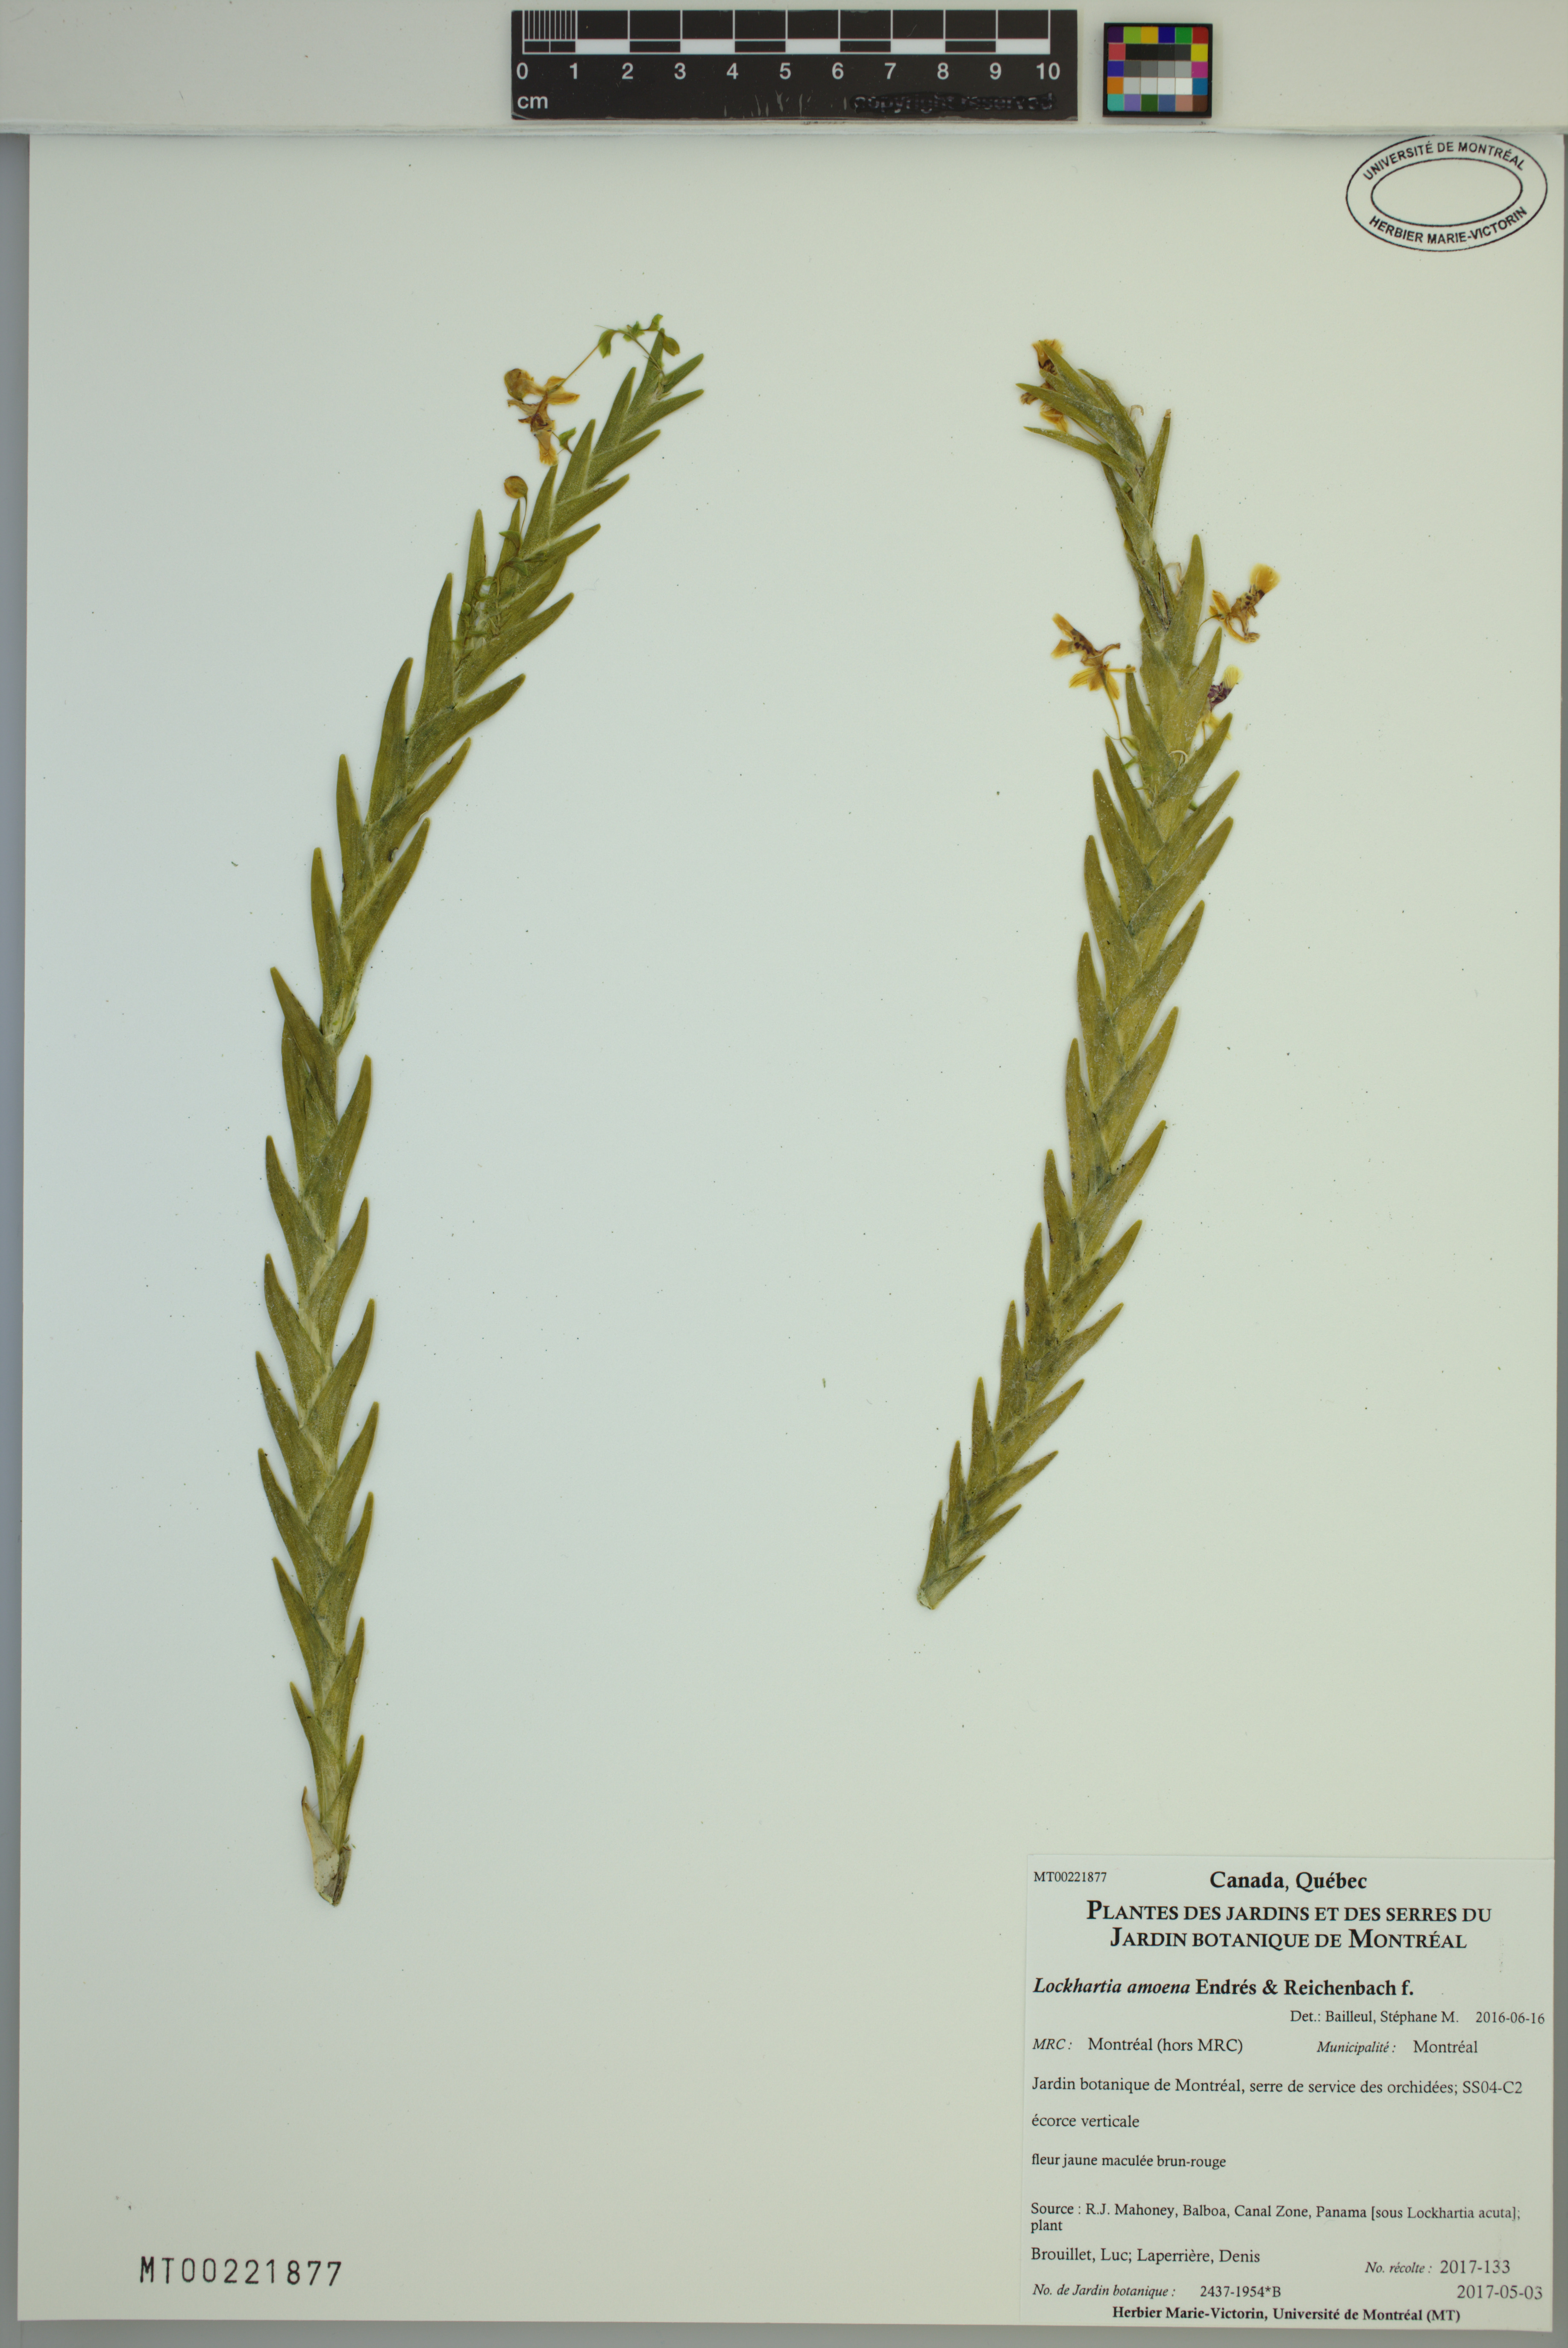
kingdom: Plantae
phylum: Tracheophyta
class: Liliopsida
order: Asparagales
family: Orchidaceae
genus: Lockhartia
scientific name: Lockhartia amoena
